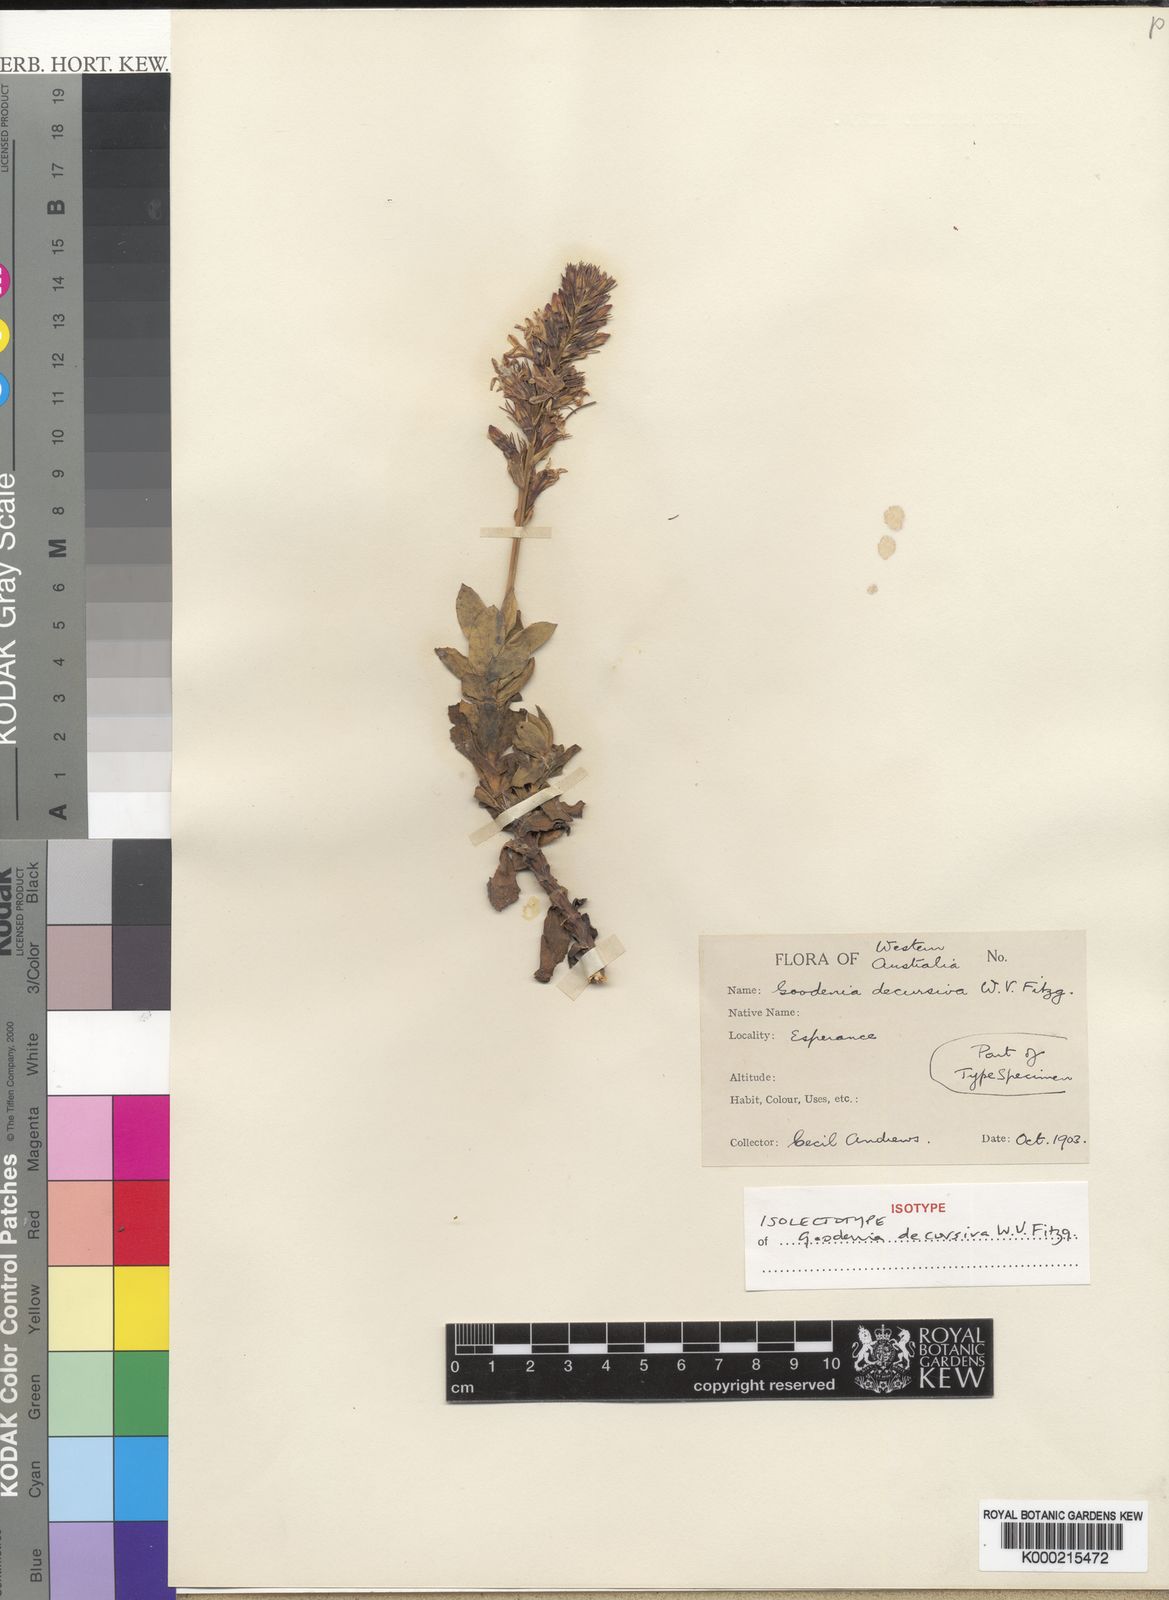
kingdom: Plantae
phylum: Tracheophyta
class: Magnoliopsida
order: Asterales
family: Goodeniaceae
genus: Goodenia
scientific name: Goodenia decursiva
